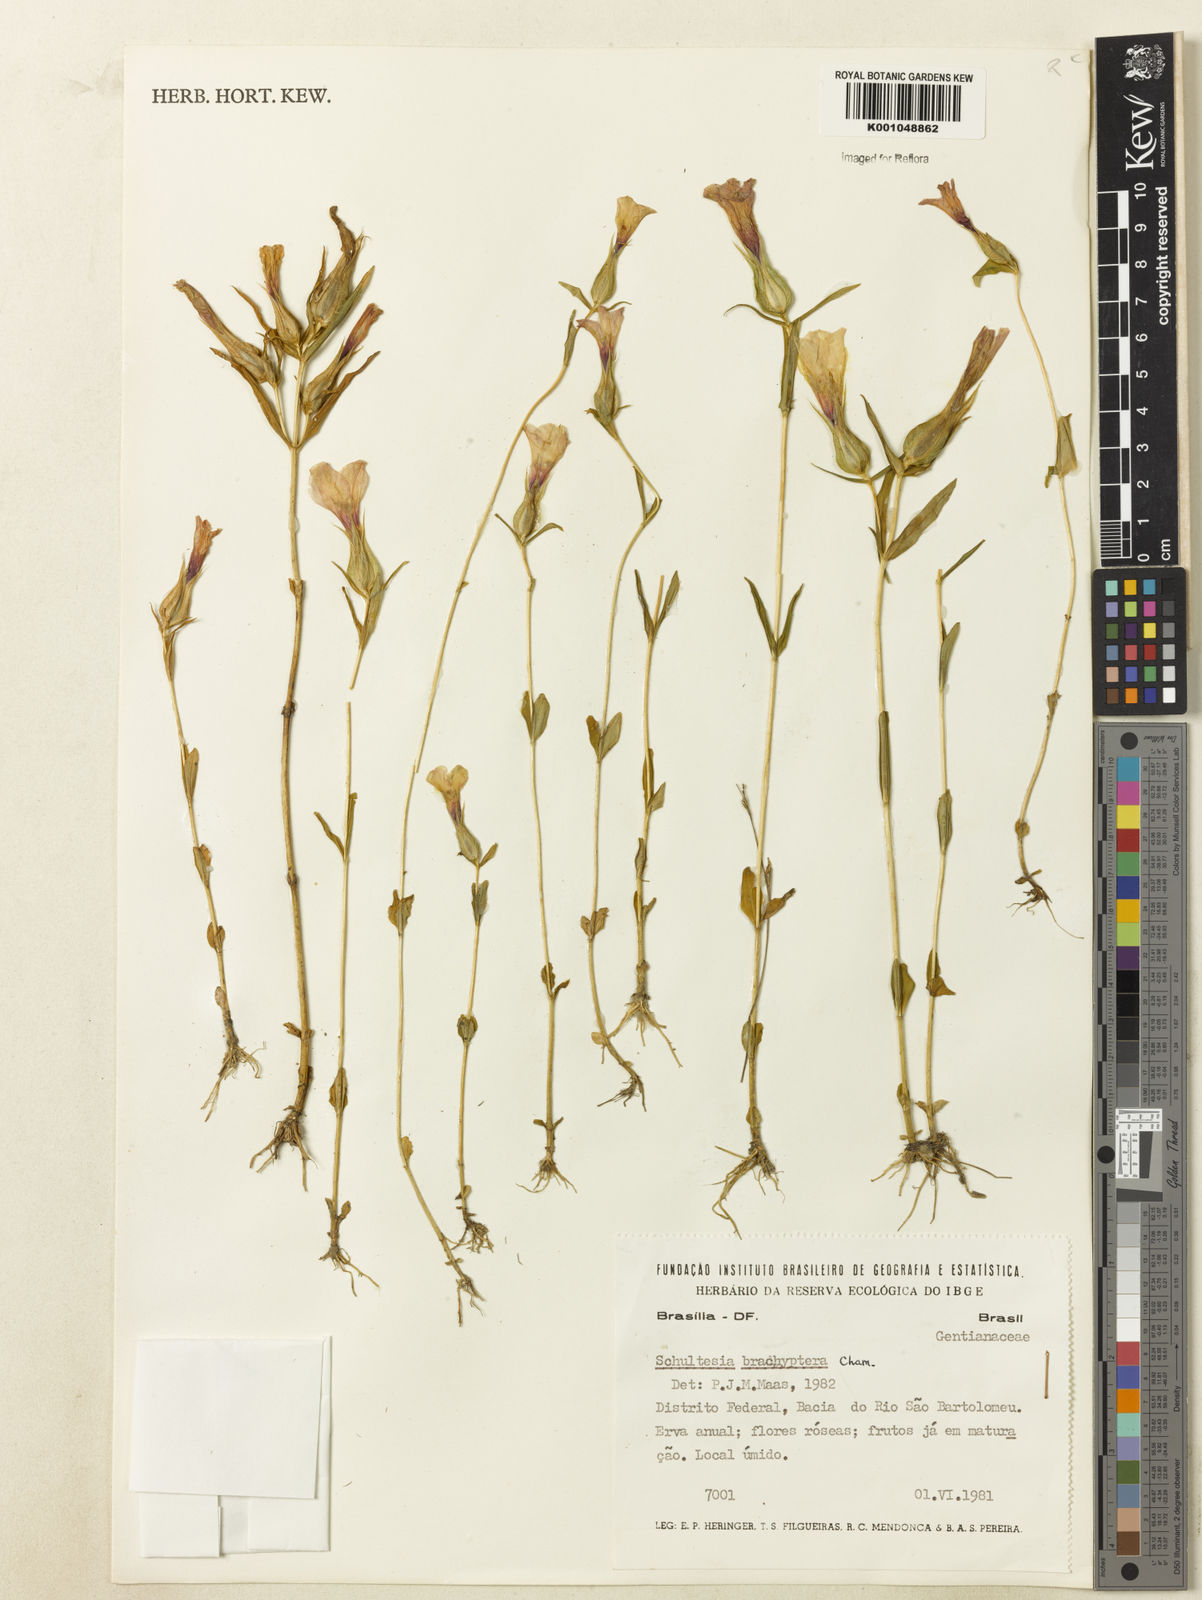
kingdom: Plantae
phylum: Tracheophyta
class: Magnoliopsida
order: Gentianales
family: Gentianaceae
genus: Schultesia
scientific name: Schultesia brachyptera
